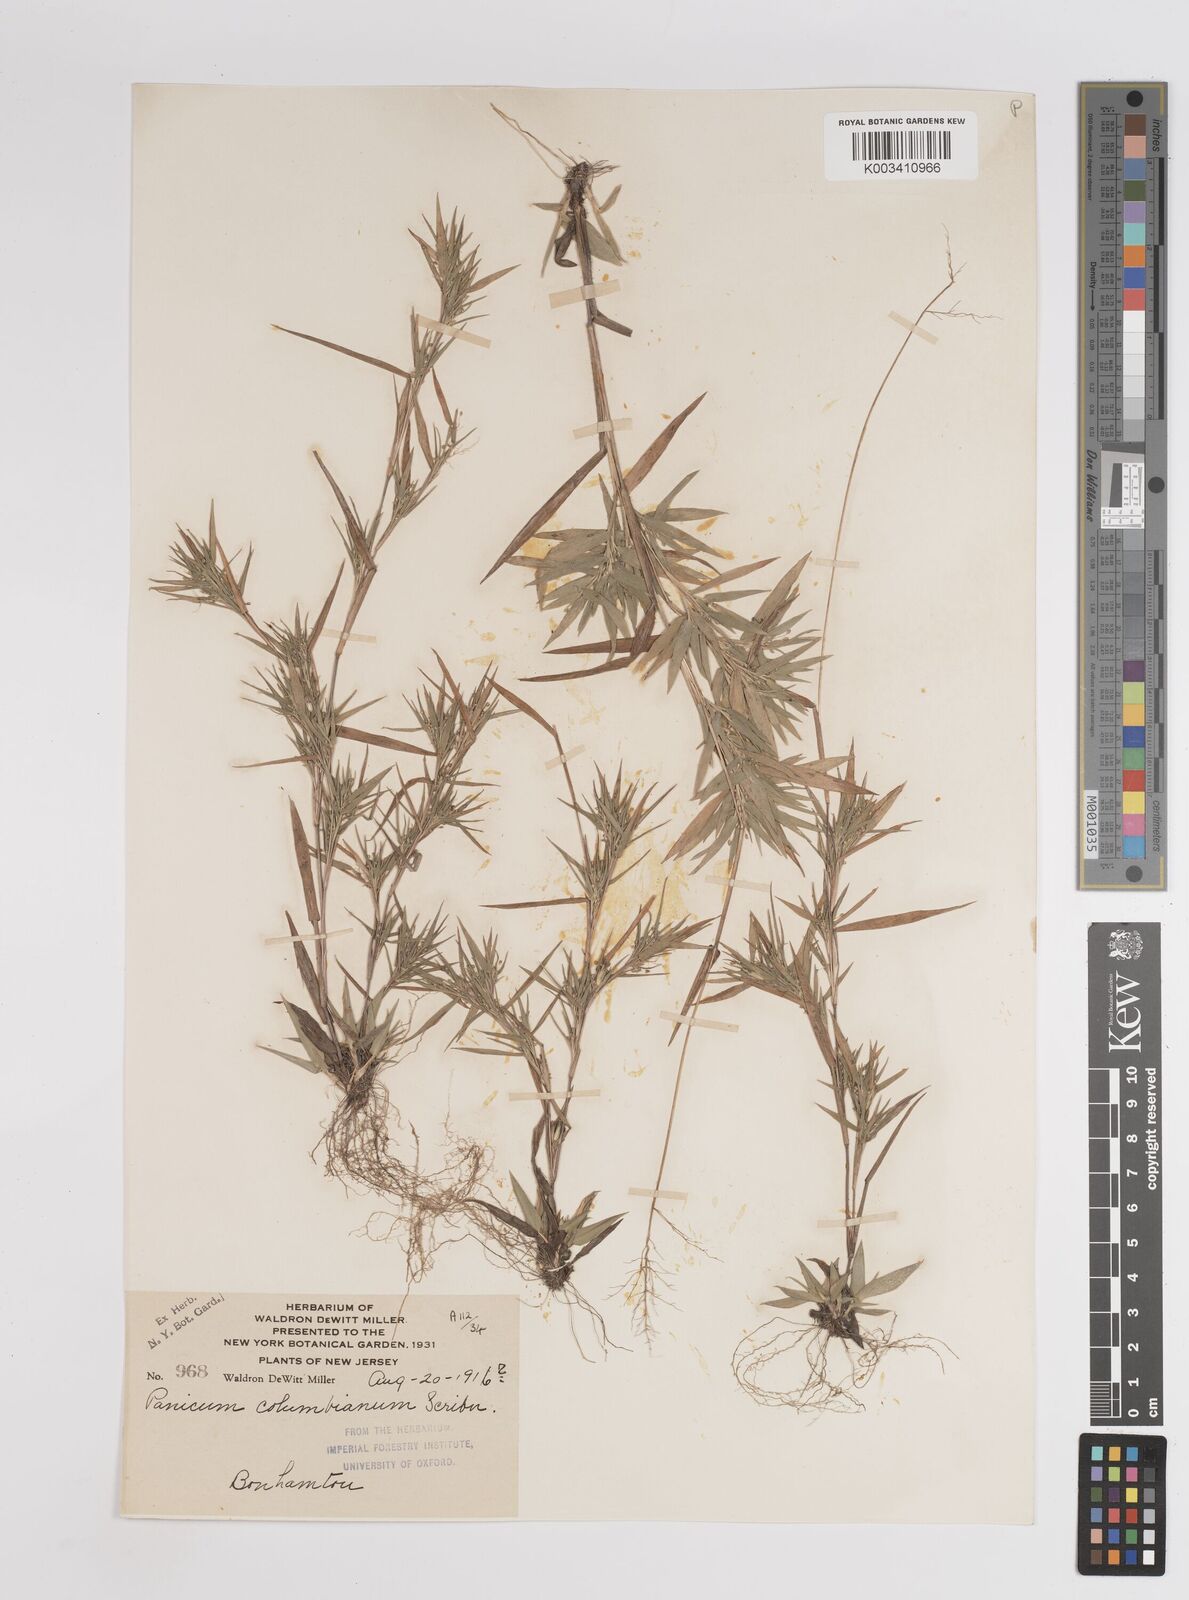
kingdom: Plantae
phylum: Tracheophyta
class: Liliopsida
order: Poales
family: Poaceae
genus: Dichanthelium
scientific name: Dichanthelium columbianum
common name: Hemlock panic grass
